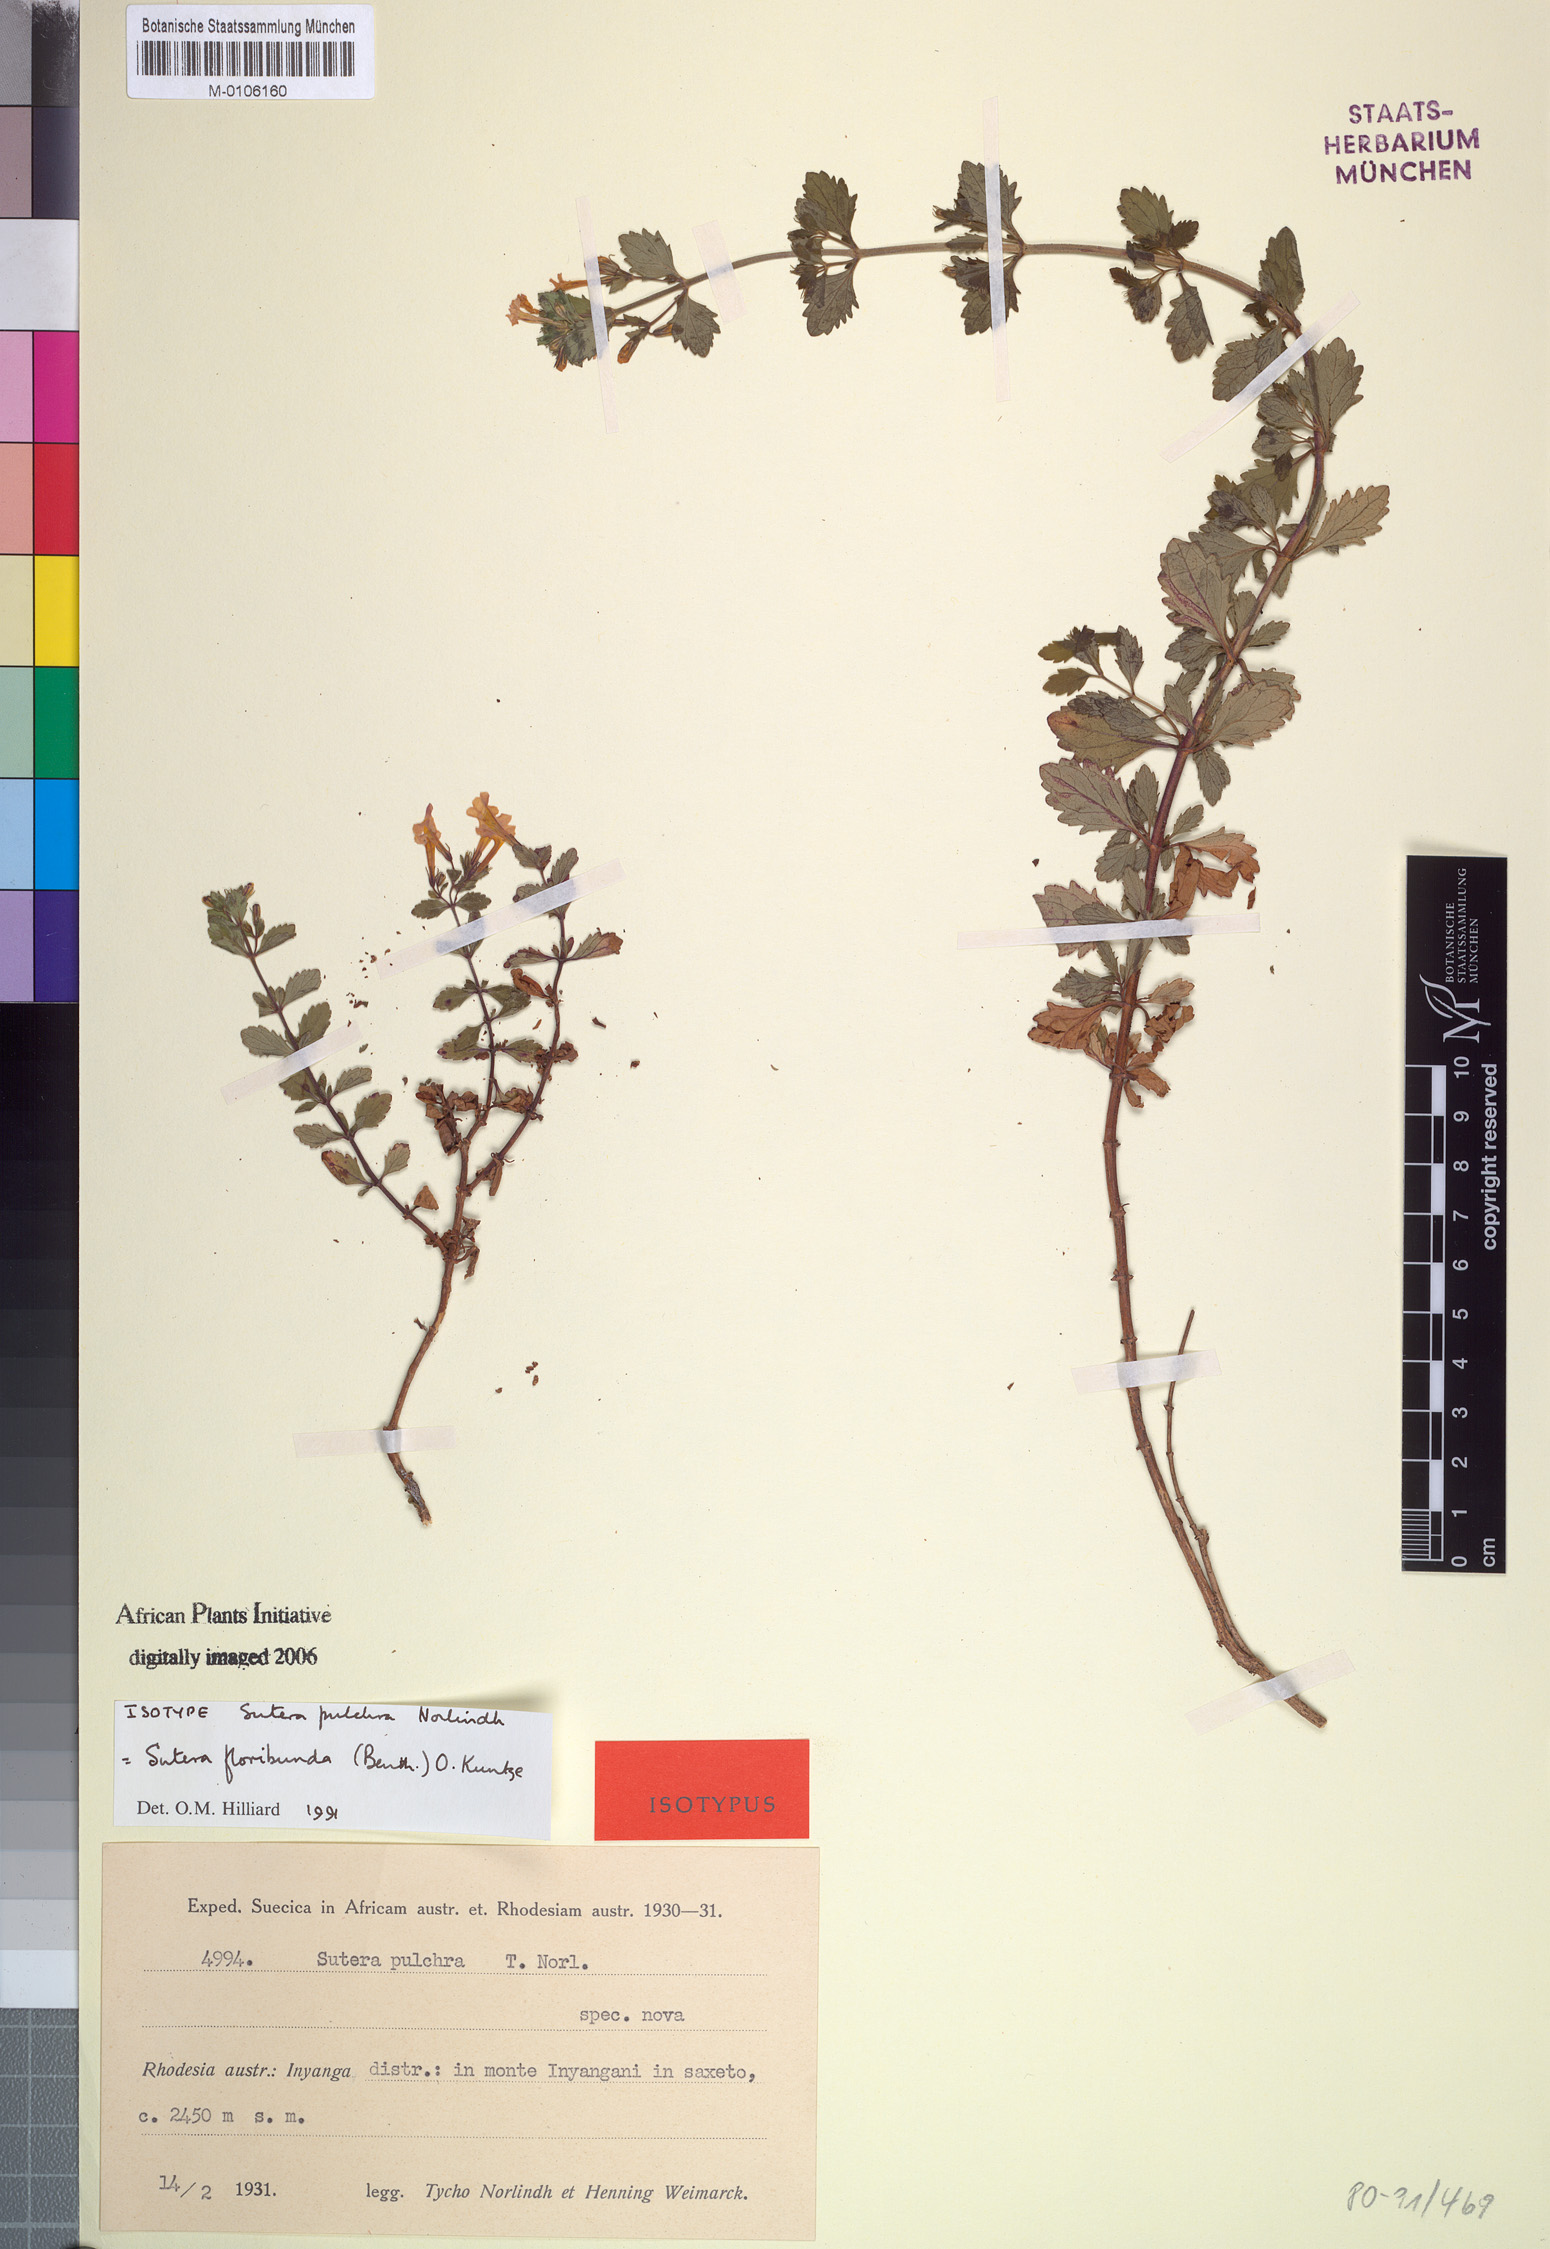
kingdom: Plantae
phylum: Tracheophyta
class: Magnoliopsida
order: Lamiales
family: Scrophulariaceae
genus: Chaenostoma
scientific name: Chaenostoma floribundum
